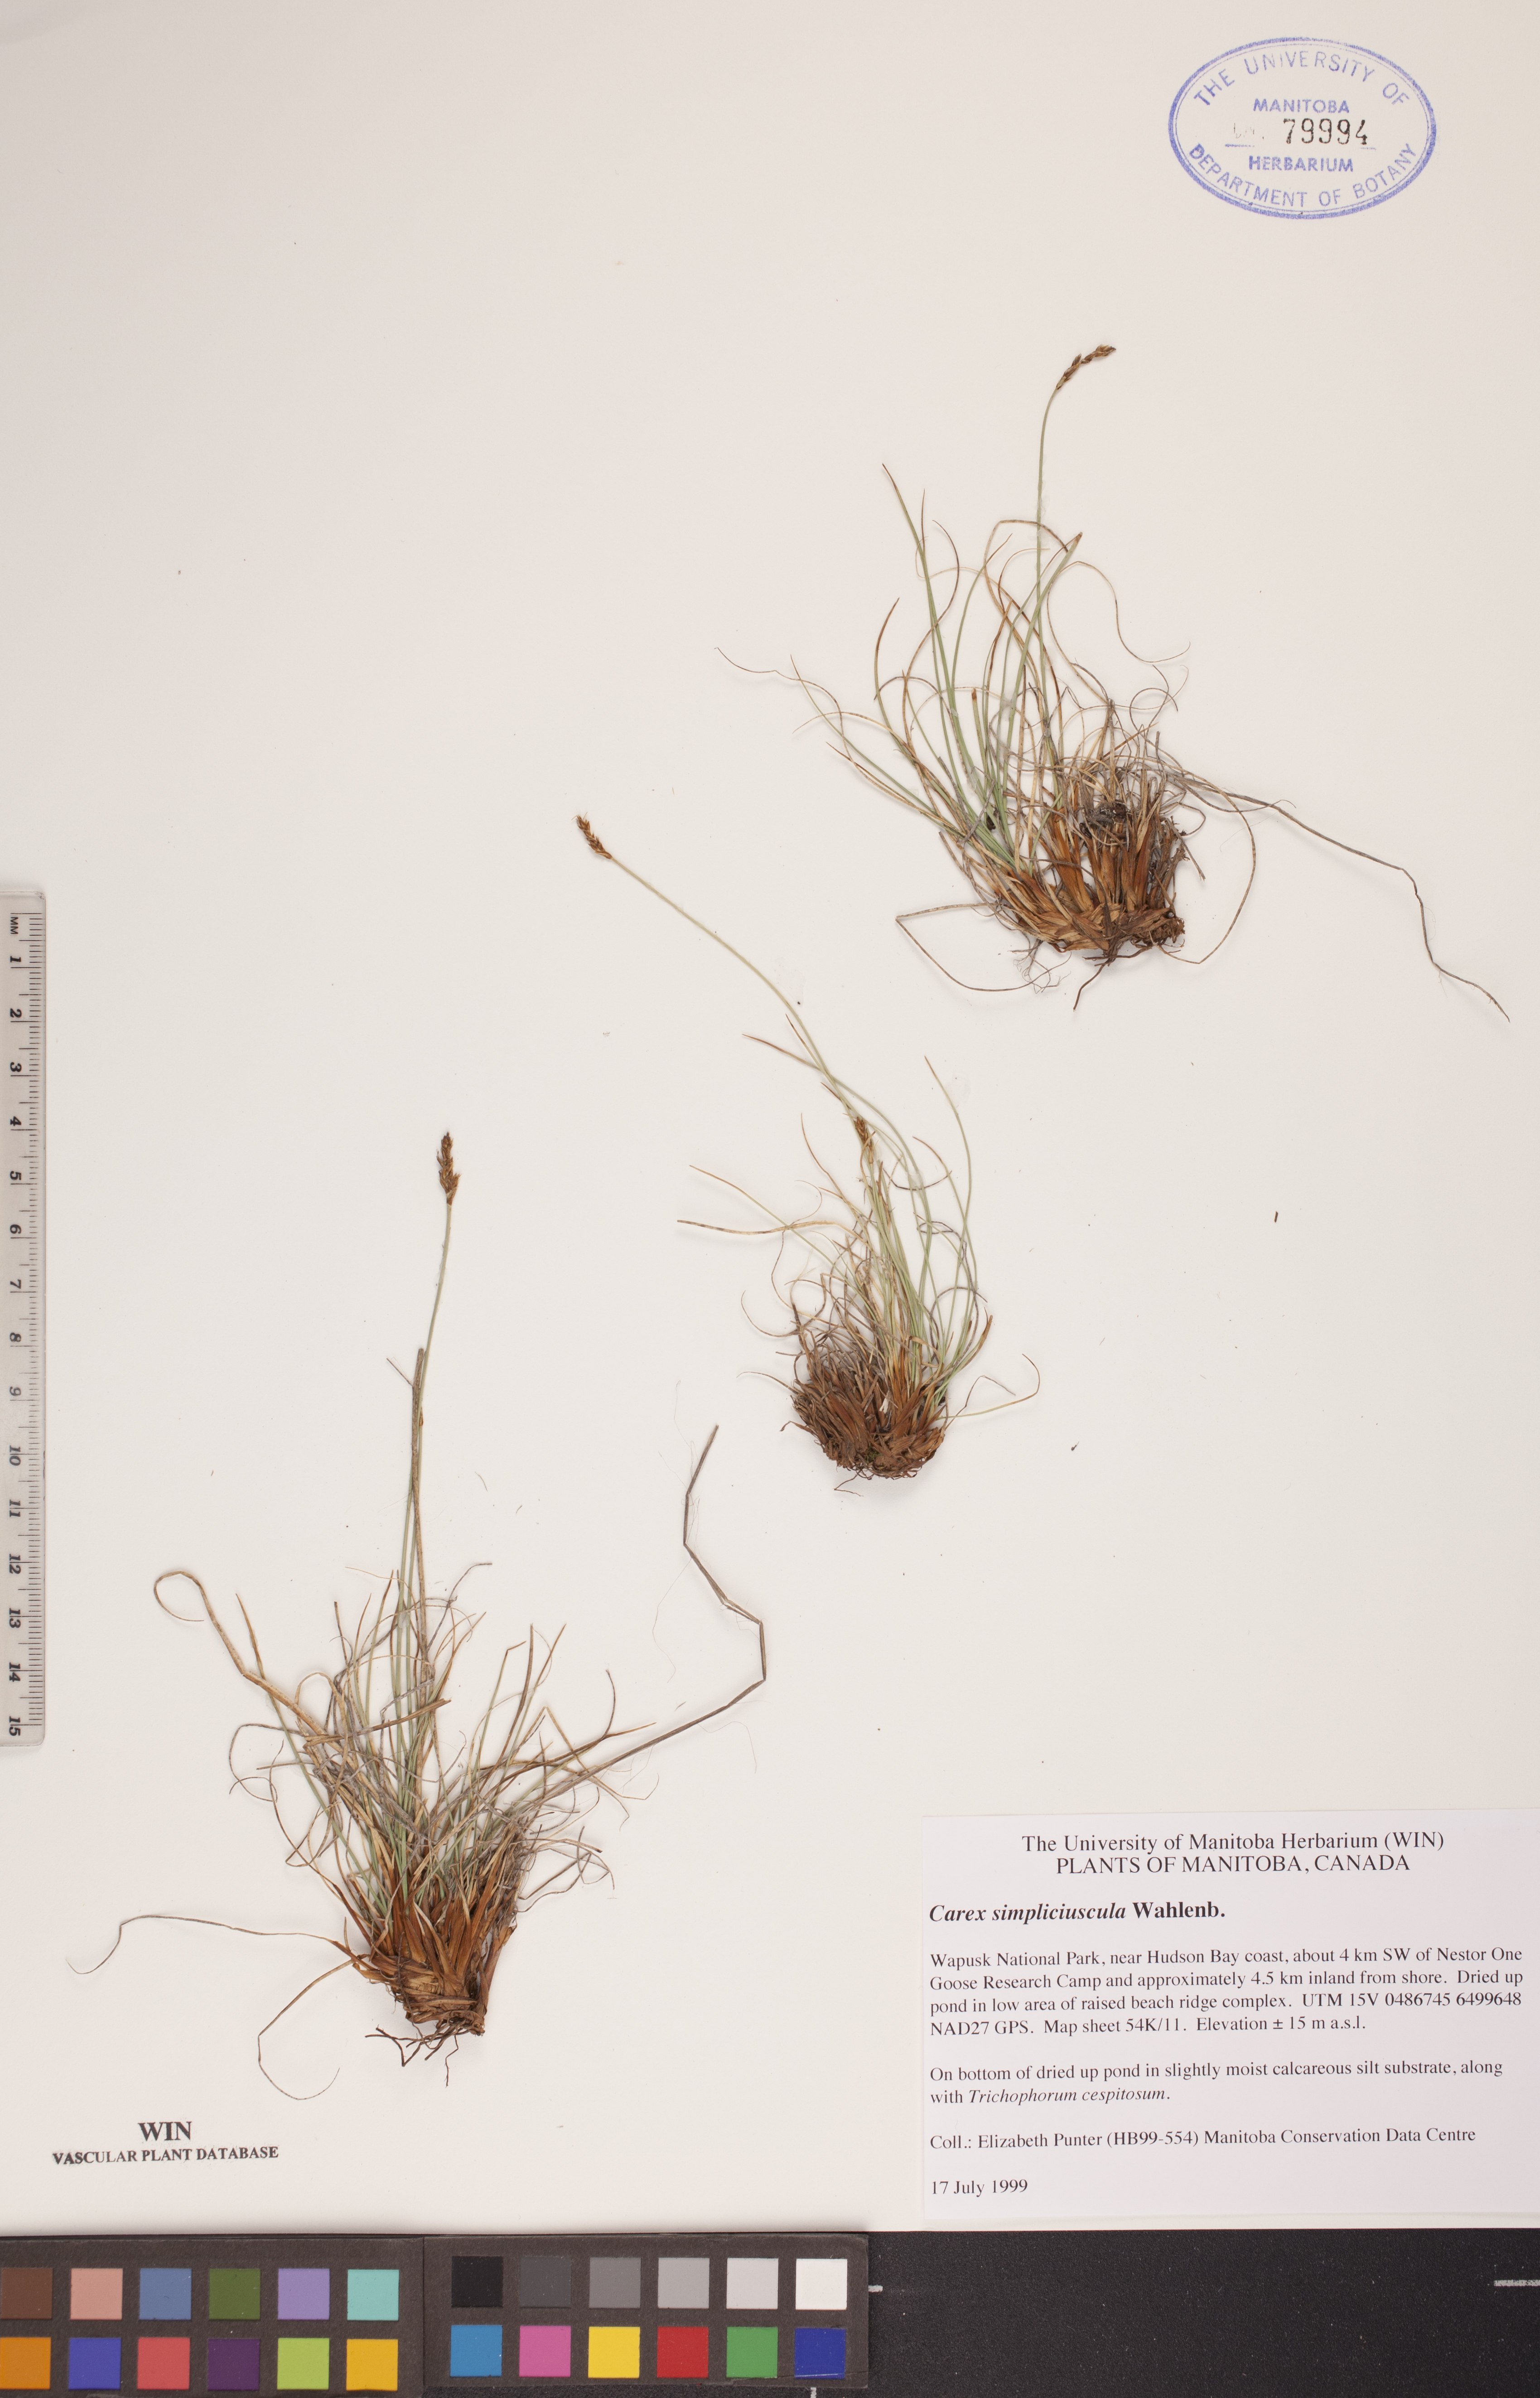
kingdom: Plantae
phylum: Tracheophyta
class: Liliopsida
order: Poales
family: Cyperaceae
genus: Carex
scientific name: Carex simpliciuscula
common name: Simple bog sedge
